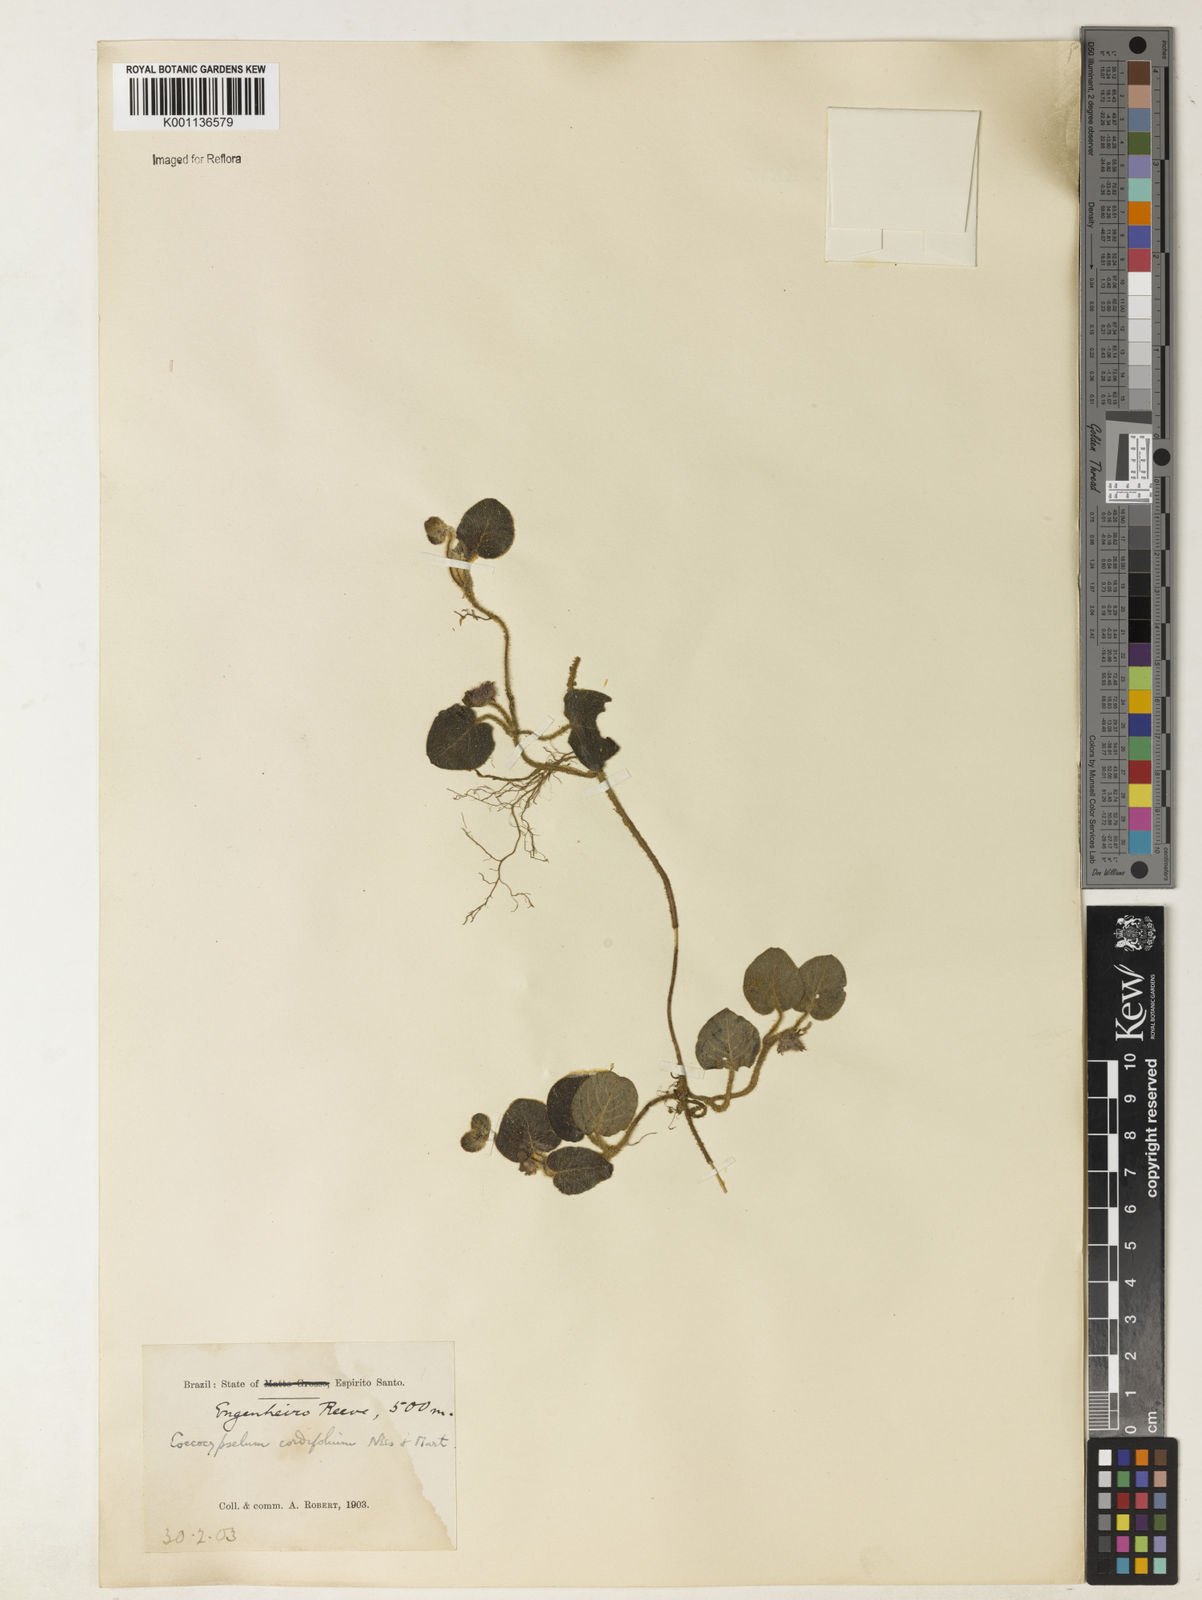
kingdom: Plantae
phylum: Tracheophyta
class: Magnoliopsida
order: Gentianales
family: Rubiaceae
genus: Coccocypselum
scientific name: Coccocypselum cordifolium
